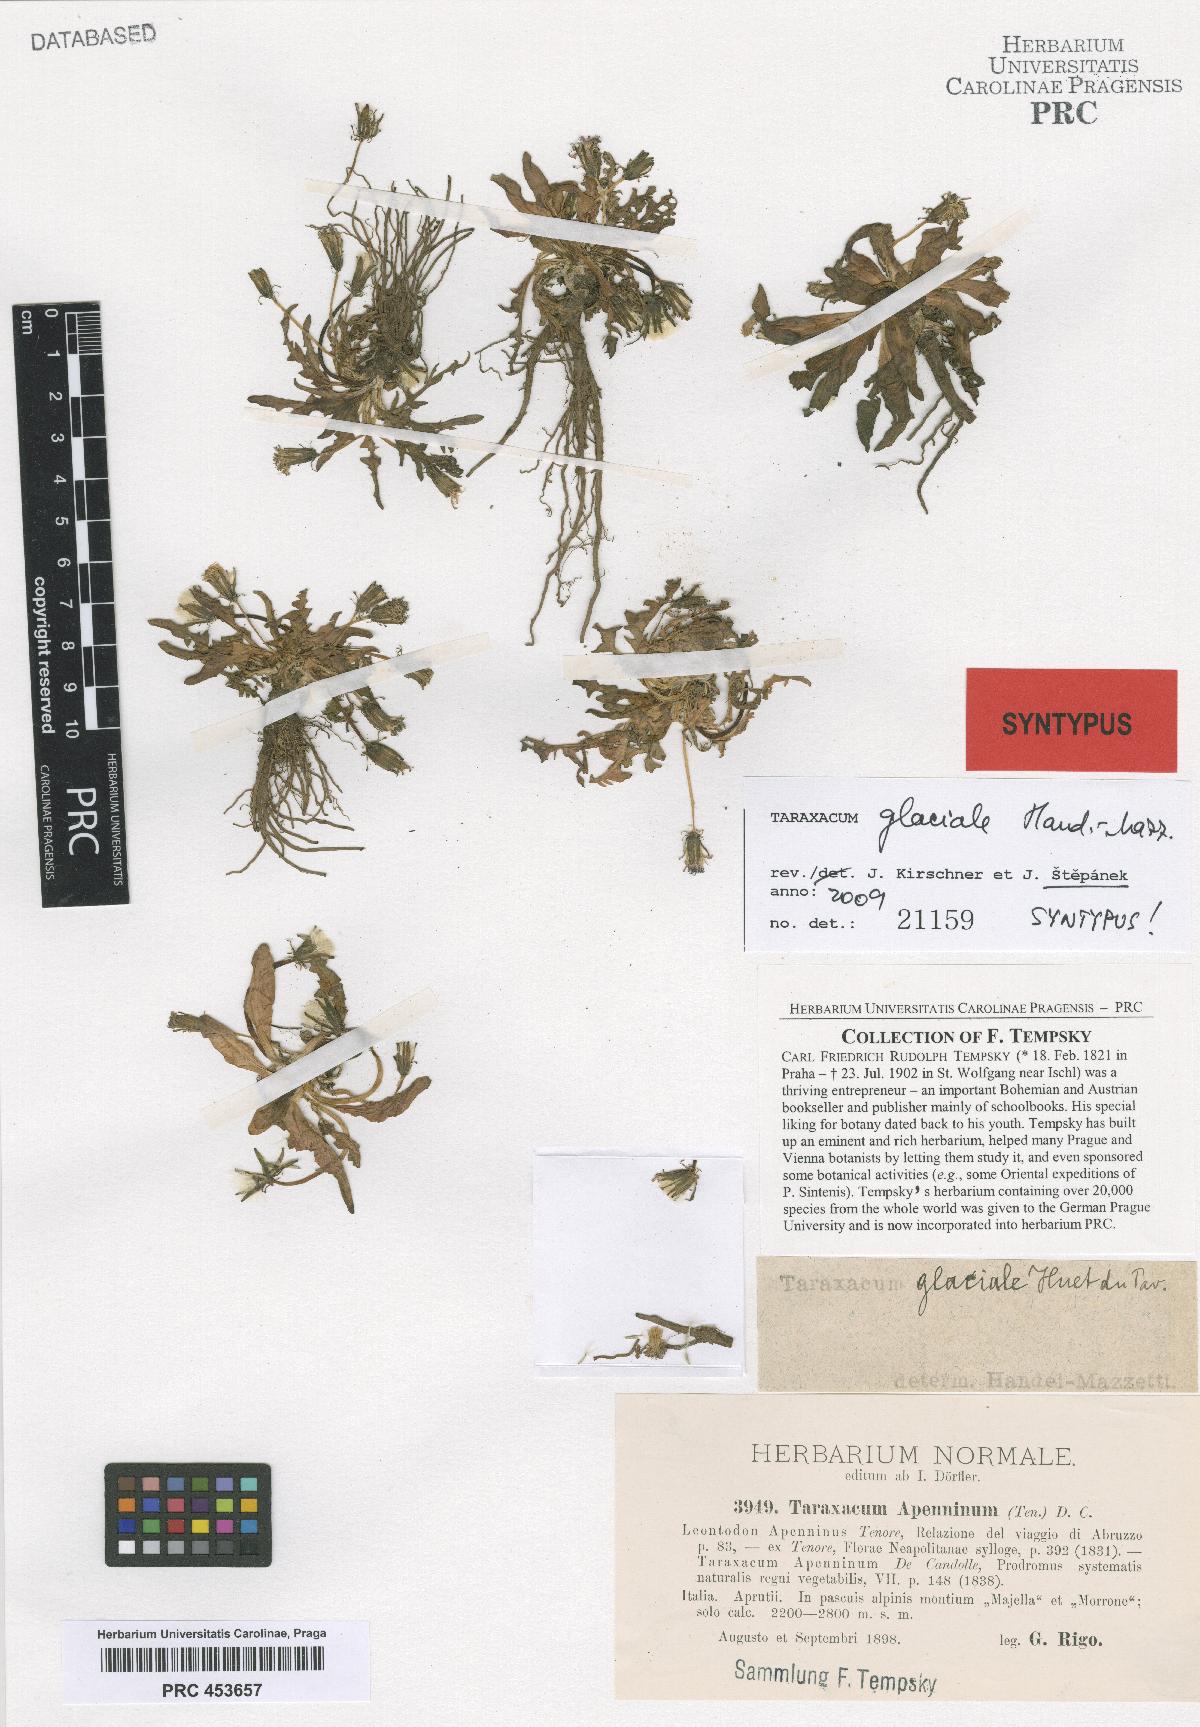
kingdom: Plantae
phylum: Tracheophyta
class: Magnoliopsida
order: Asterales
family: Asteraceae
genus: Taraxacum
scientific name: Taraxacum glaciale
